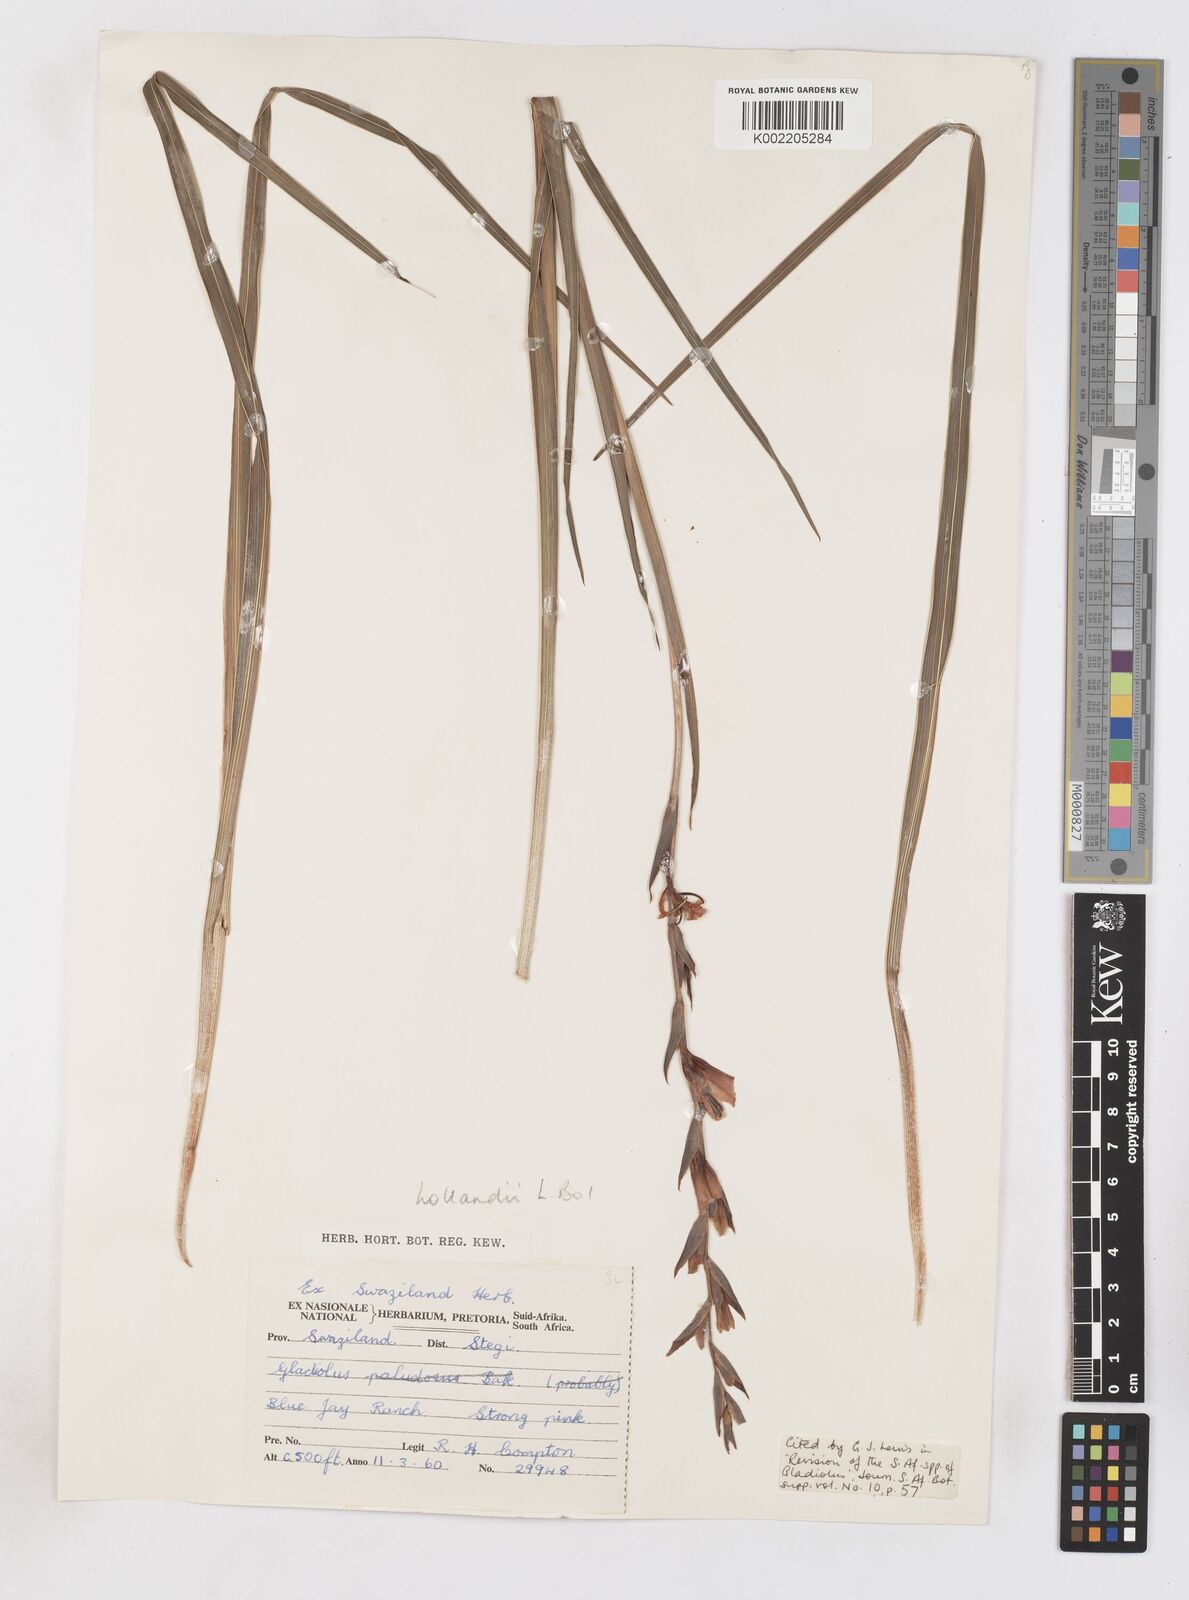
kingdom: Plantae
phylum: Tracheophyta
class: Liliopsida
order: Asparagales
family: Iridaceae
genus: Gladiolus
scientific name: Gladiolus hollandii
